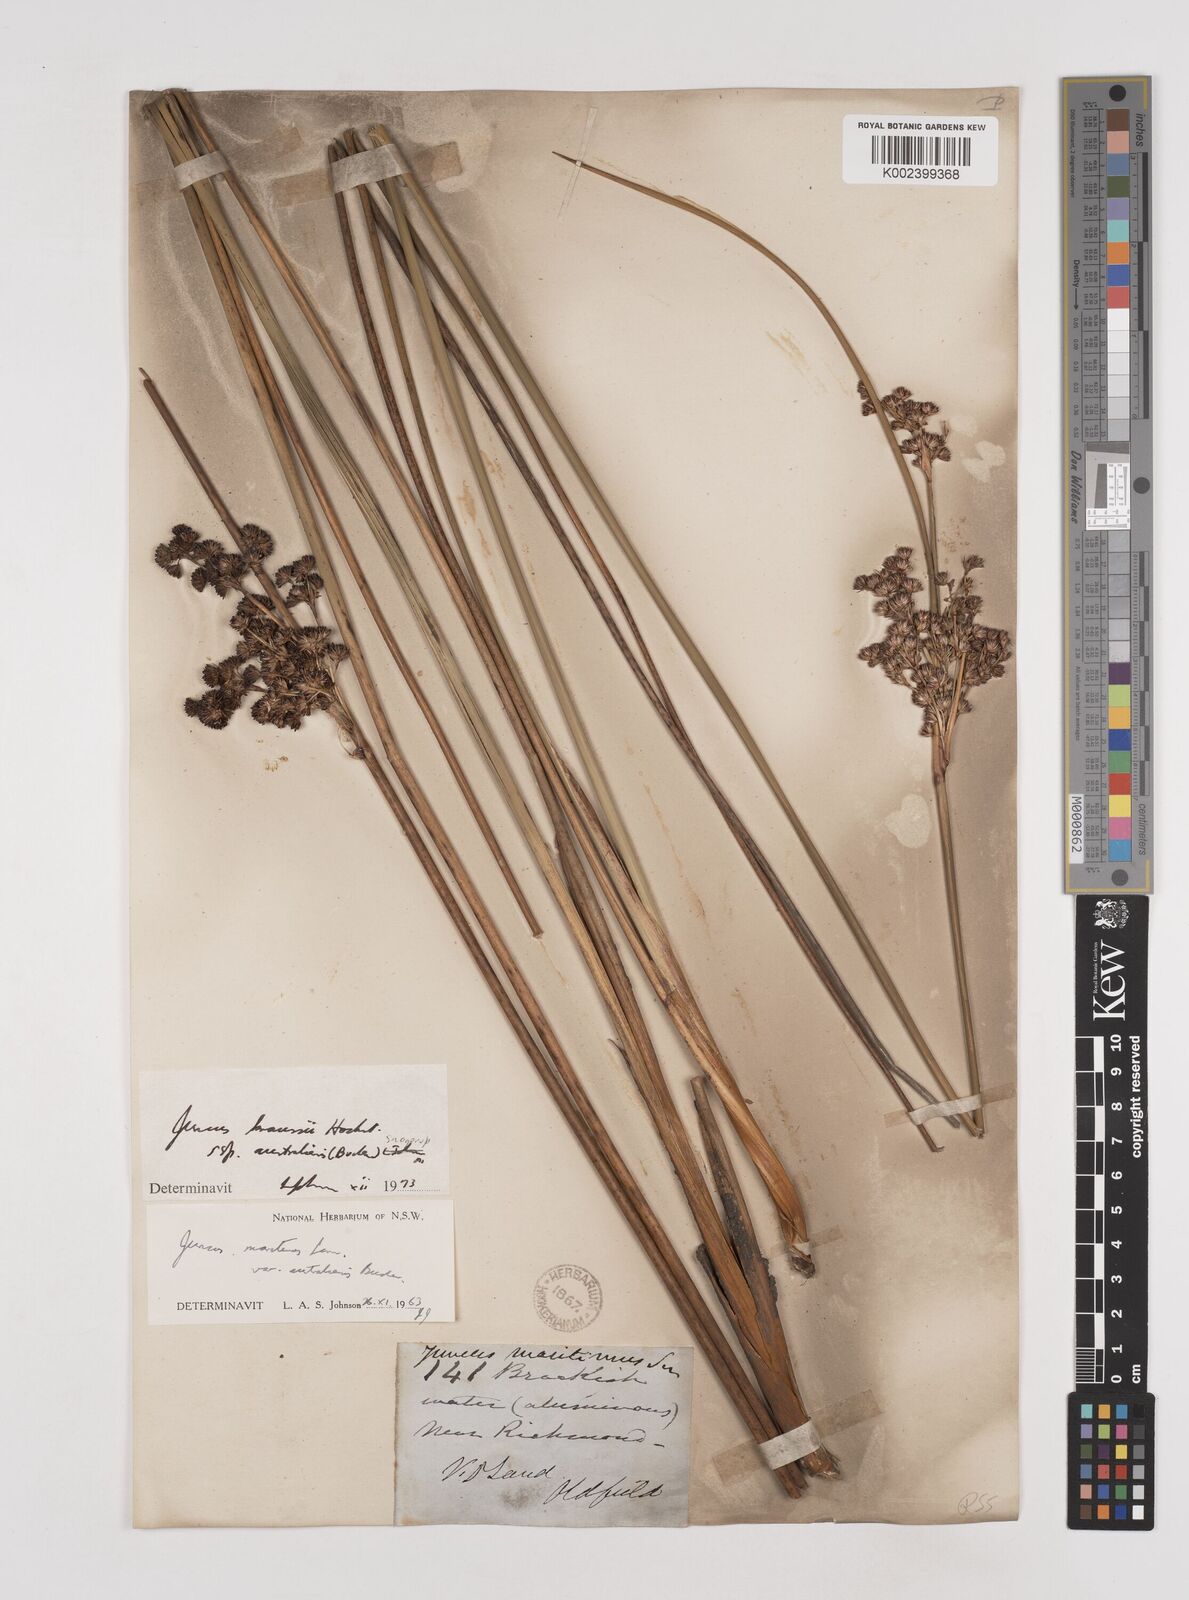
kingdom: Plantae
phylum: Tracheophyta
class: Liliopsida
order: Poales
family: Juncaceae
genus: Juncus
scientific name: Juncus kraussii
